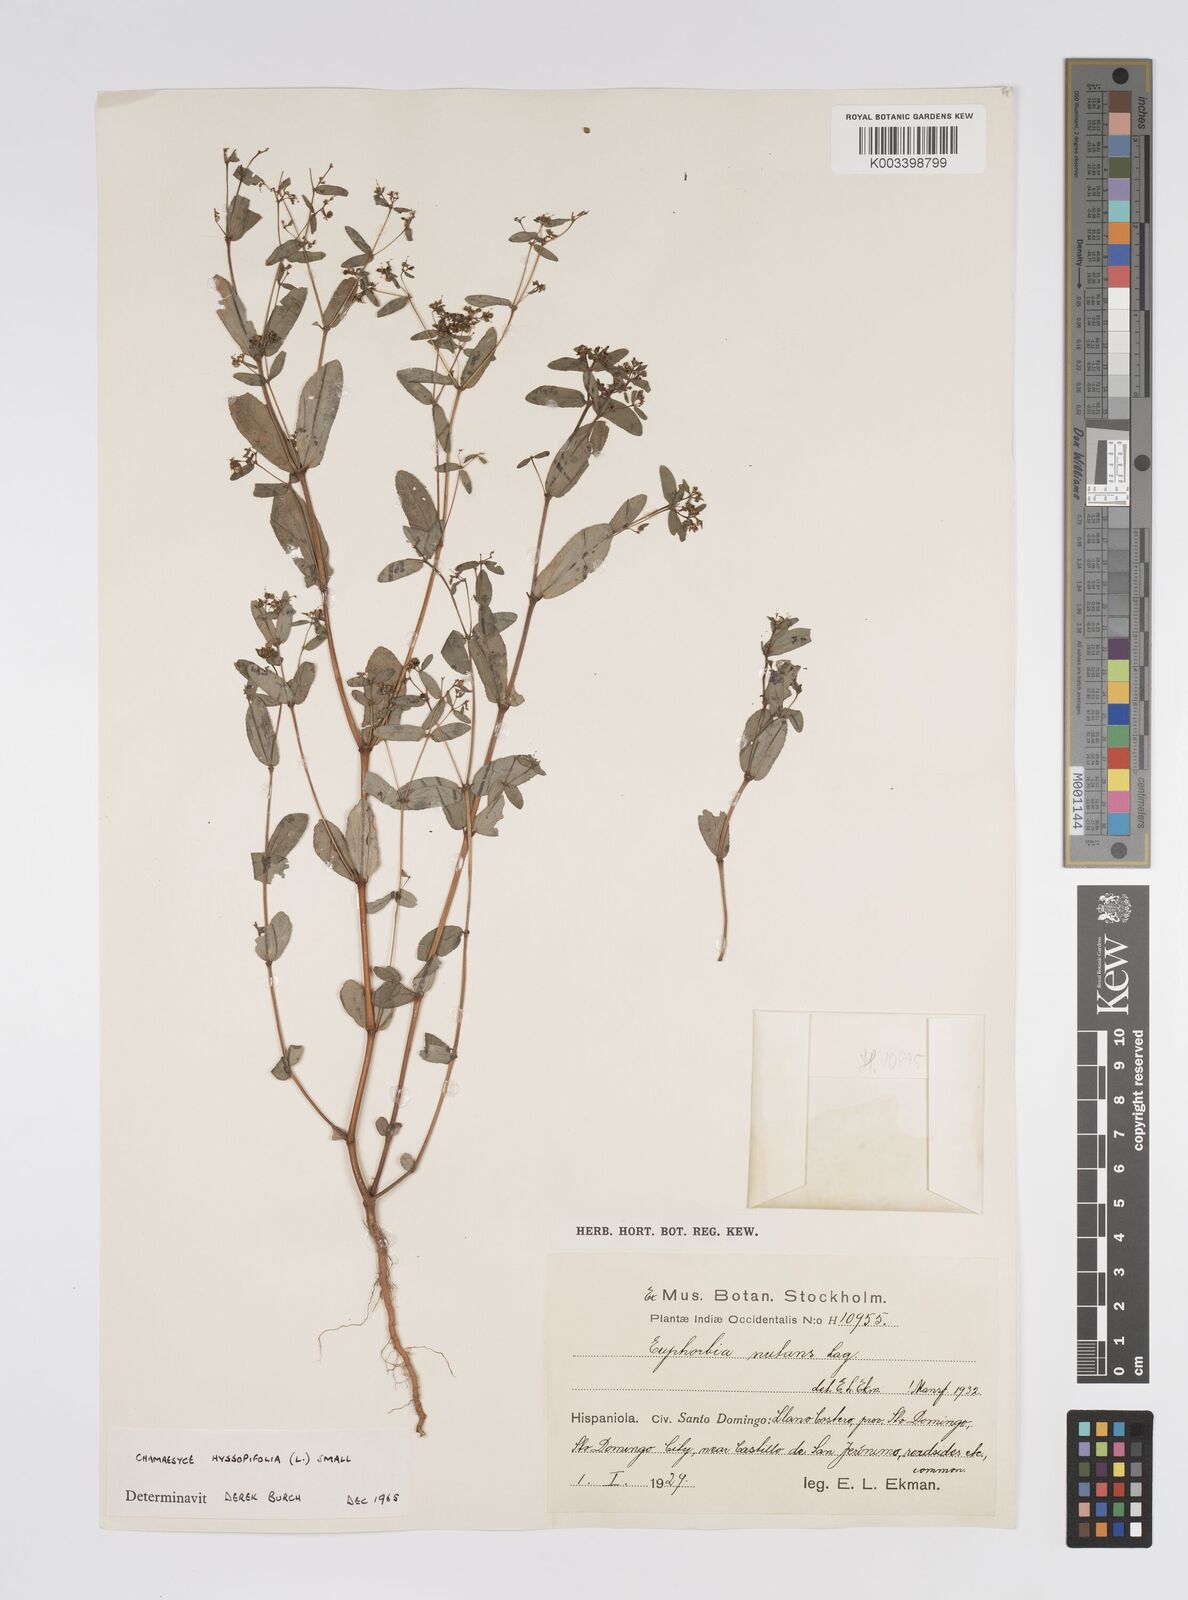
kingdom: Plantae
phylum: Tracheophyta
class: Magnoliopsida
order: Malpighiales
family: Euphorbiaceae
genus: Euphorbia
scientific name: Euphorbia nutans
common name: Eyebane
